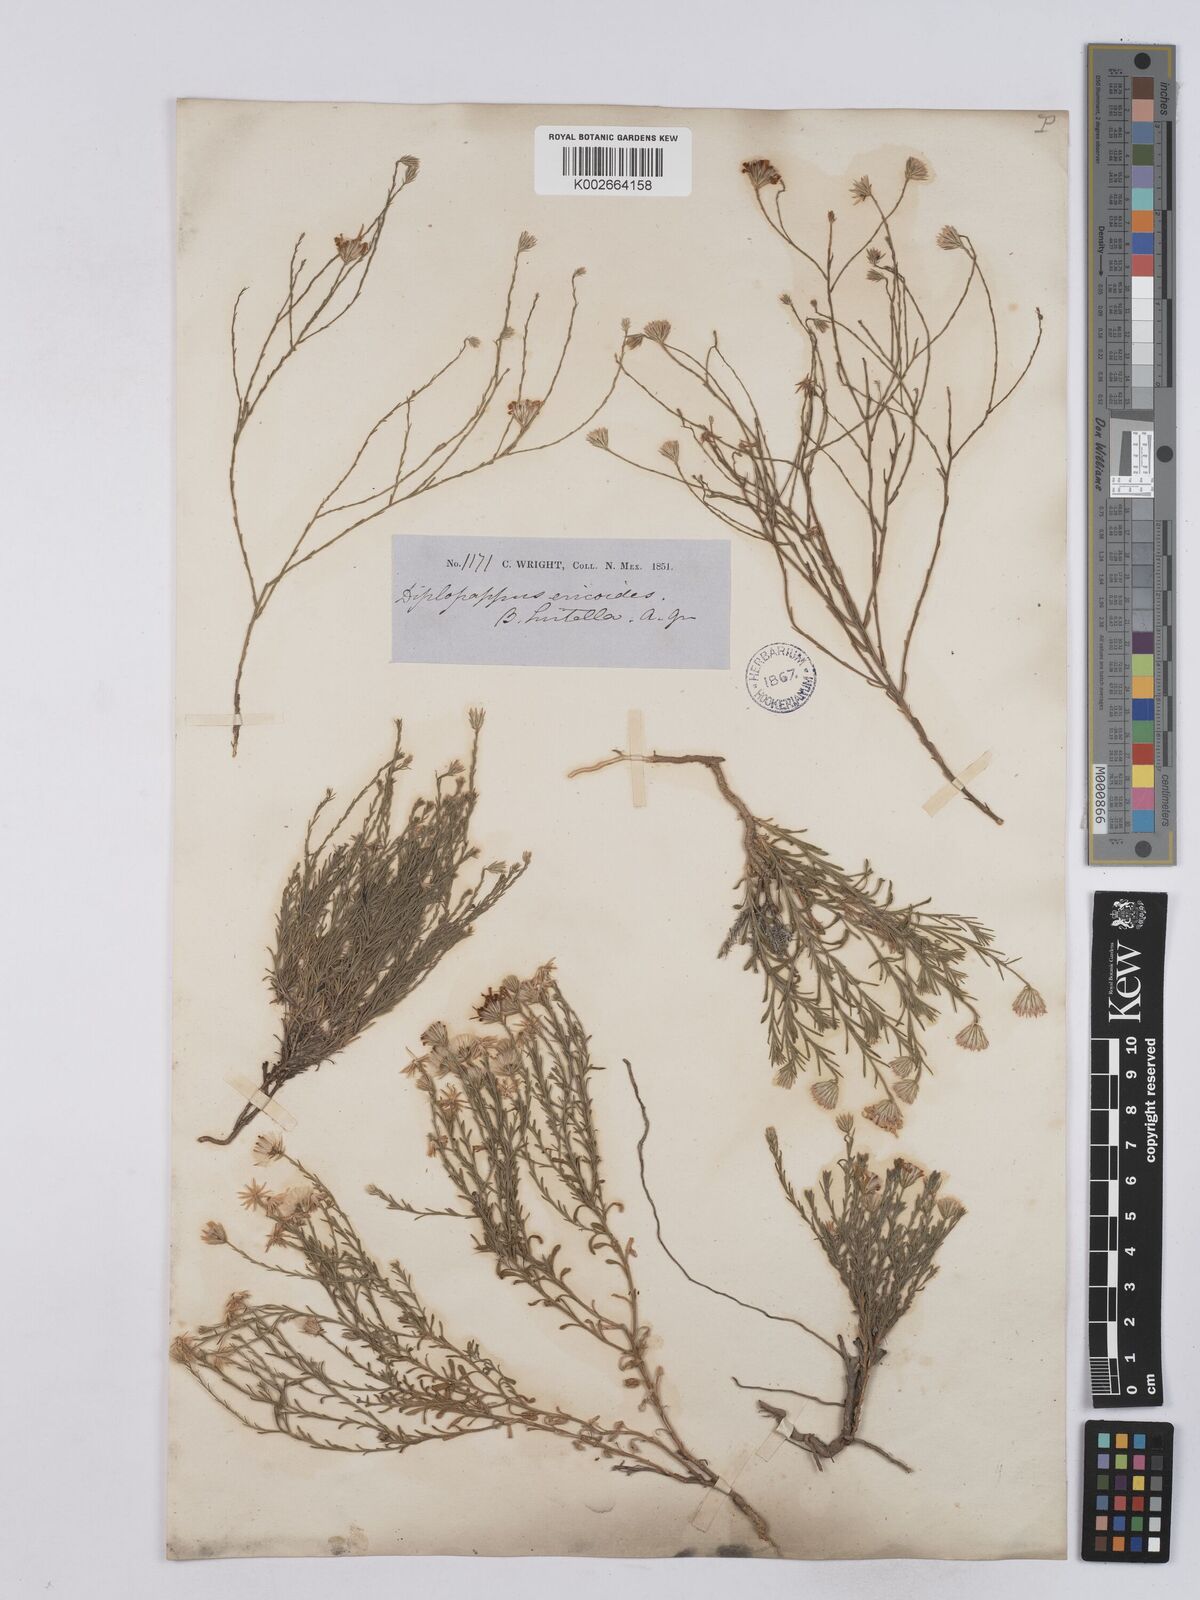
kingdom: Plantae
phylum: Tracheophyta
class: Magnoliopsida
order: Asterales
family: Asteraceae
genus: Chaetopappa
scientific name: Chaetopappa ericoides
